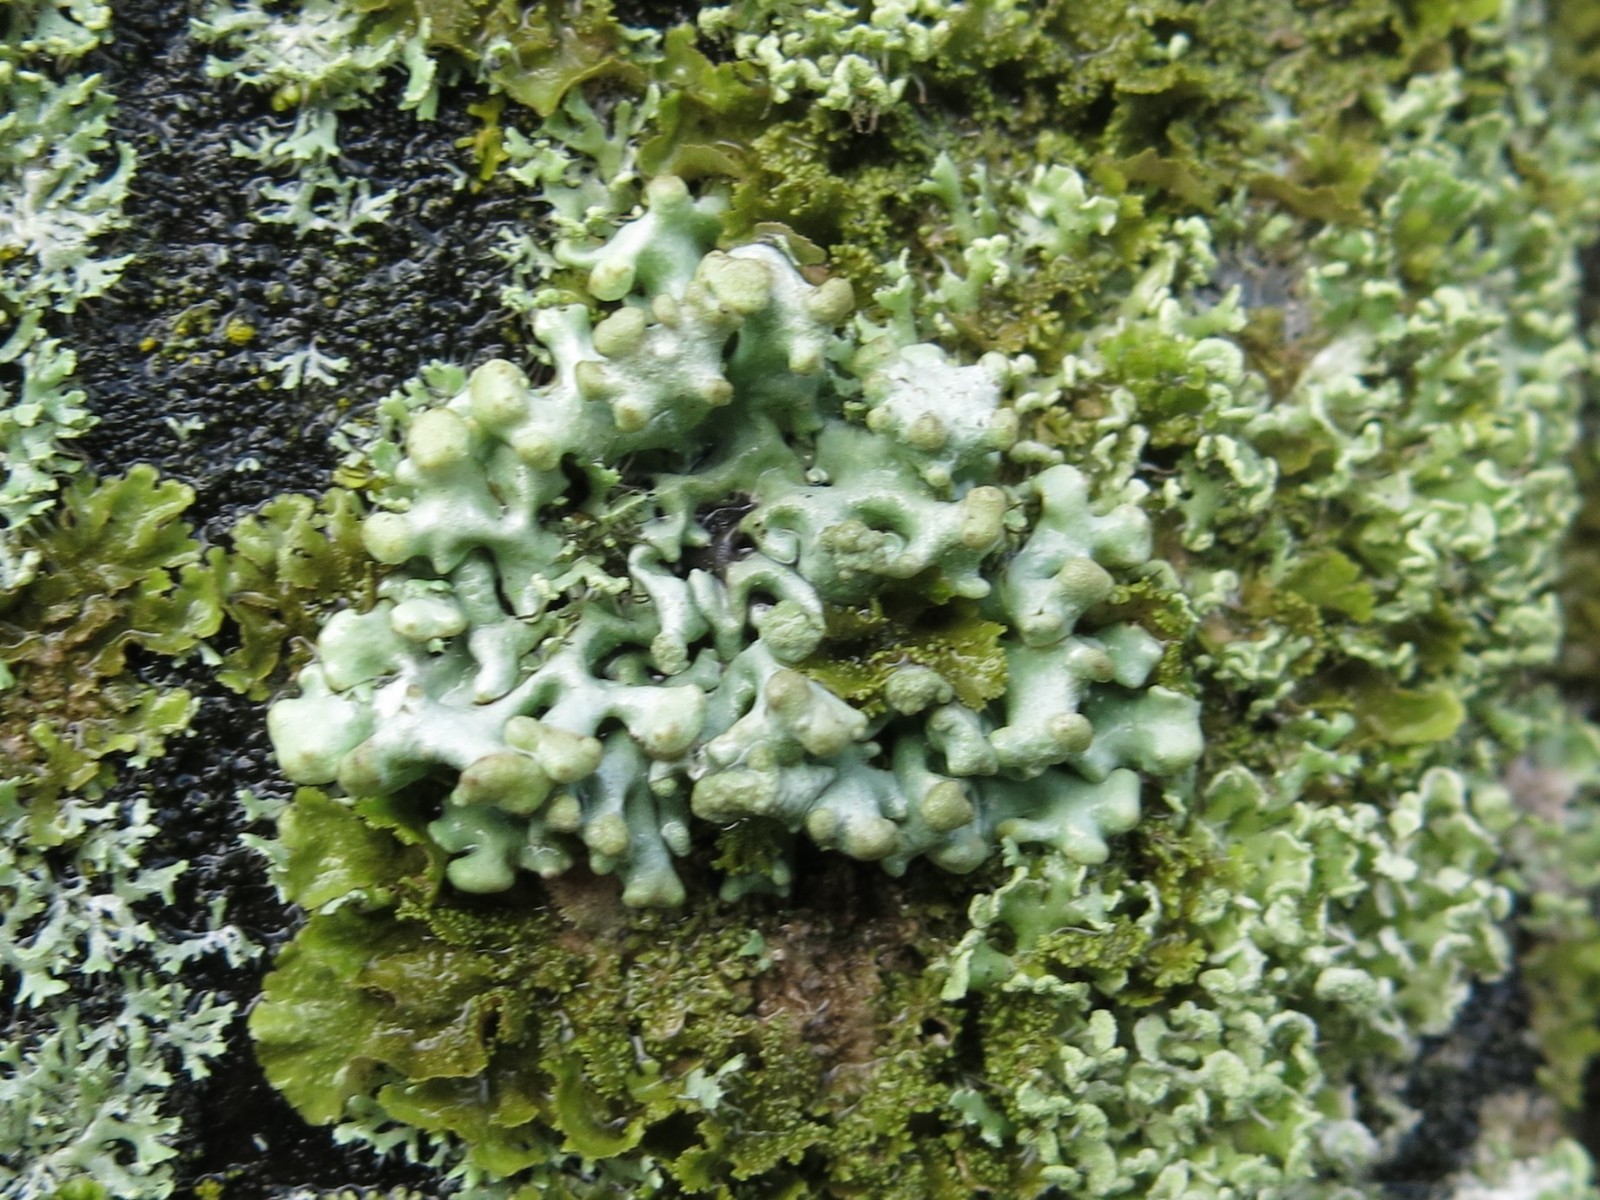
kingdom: Fungi
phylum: Ascomycota
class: Lecanoromycetes
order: Lecanorales
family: Parmeliaceae
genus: Hypogymnia
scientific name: Hypogymnia tubulosa
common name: finger-kvistlav
